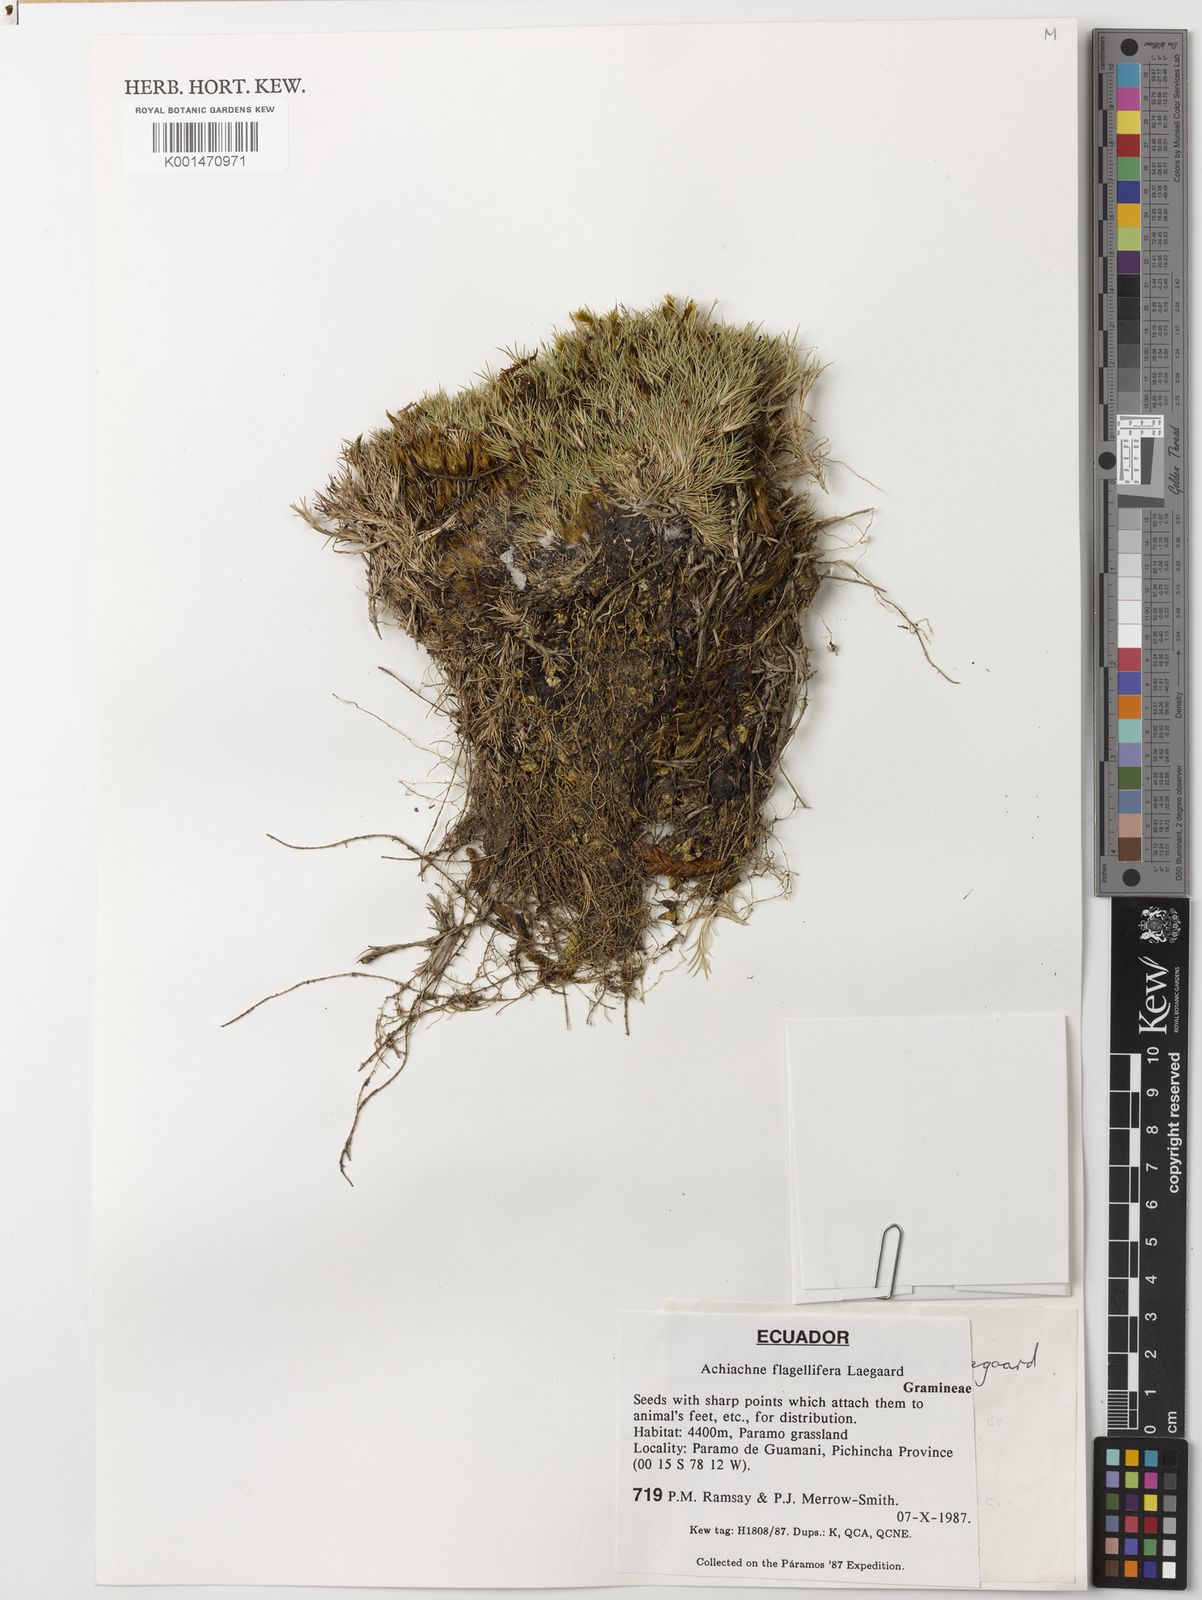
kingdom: Plantae
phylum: Tracheophyta
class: Liliopsida
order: Poales
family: Poaceae
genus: Aciachne
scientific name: Aciachne flagellifera
